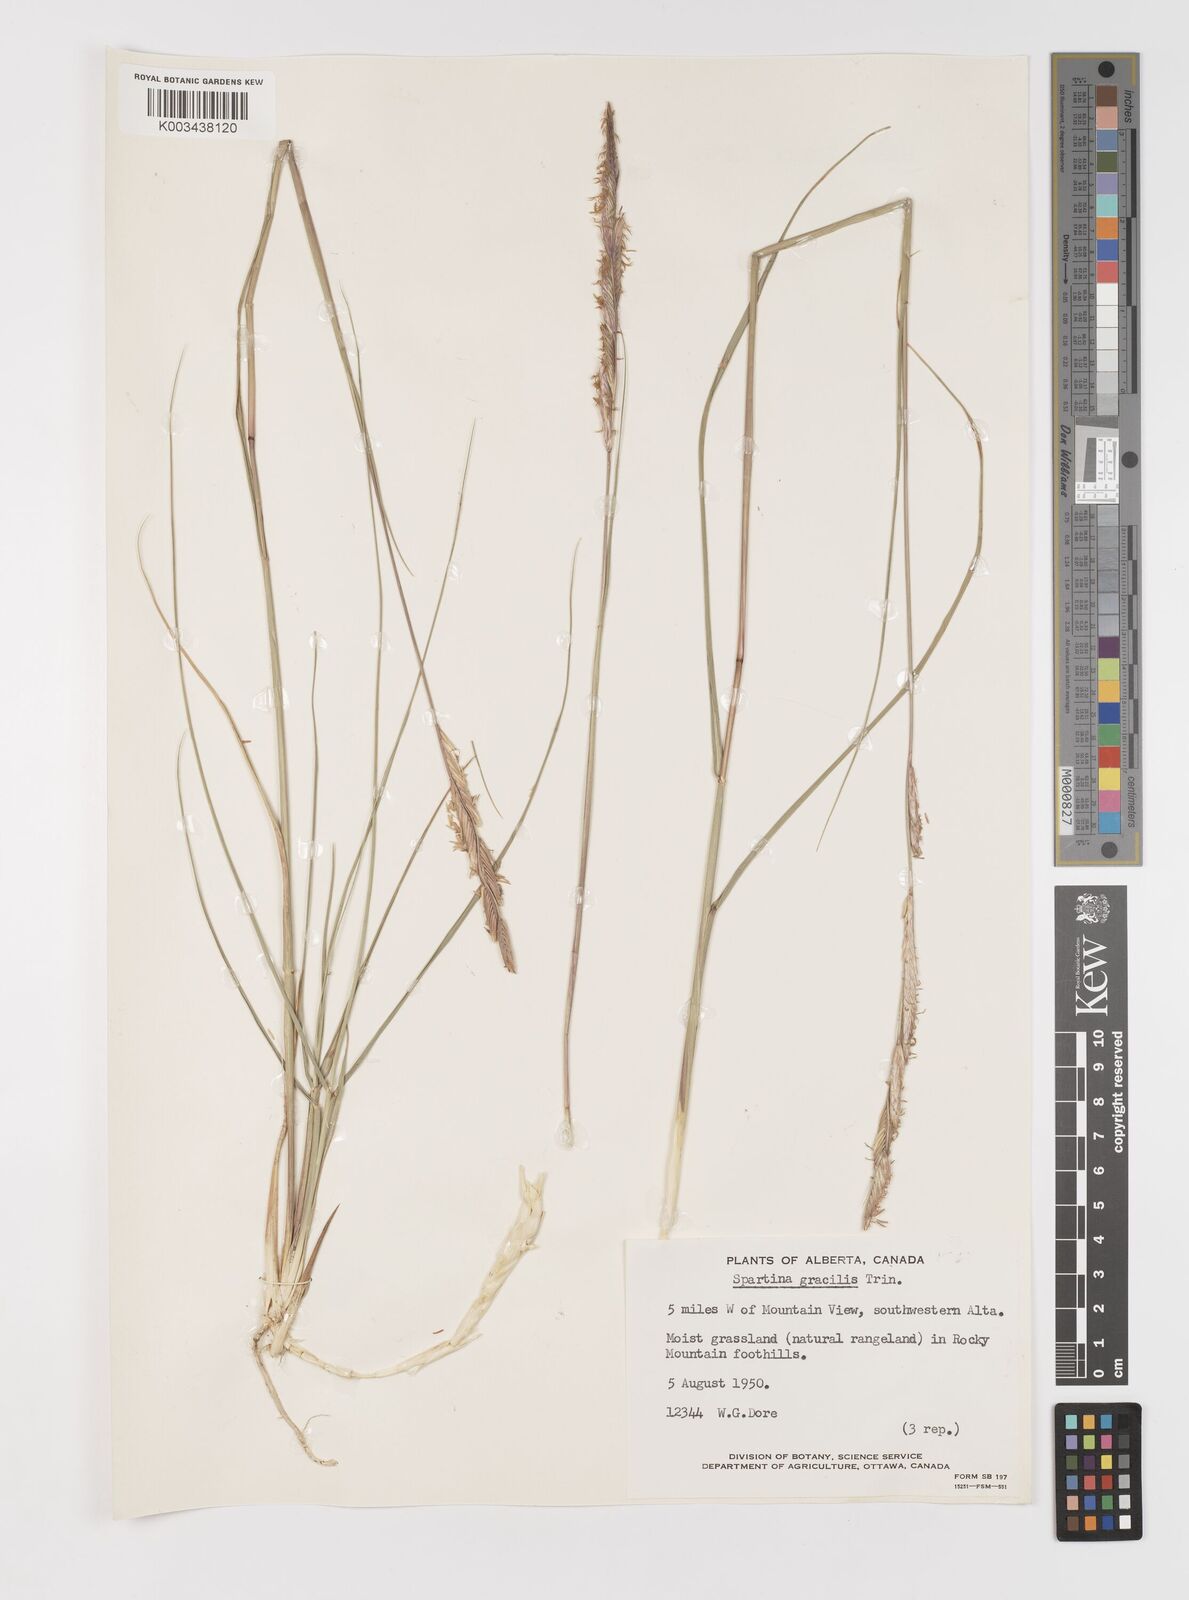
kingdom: Plantae
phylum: Tracheophyta
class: Liliopsida
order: Poales
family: Poaceae
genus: Sporobolus
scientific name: Sporobolus hookerianus
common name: Alkali cordgrass
